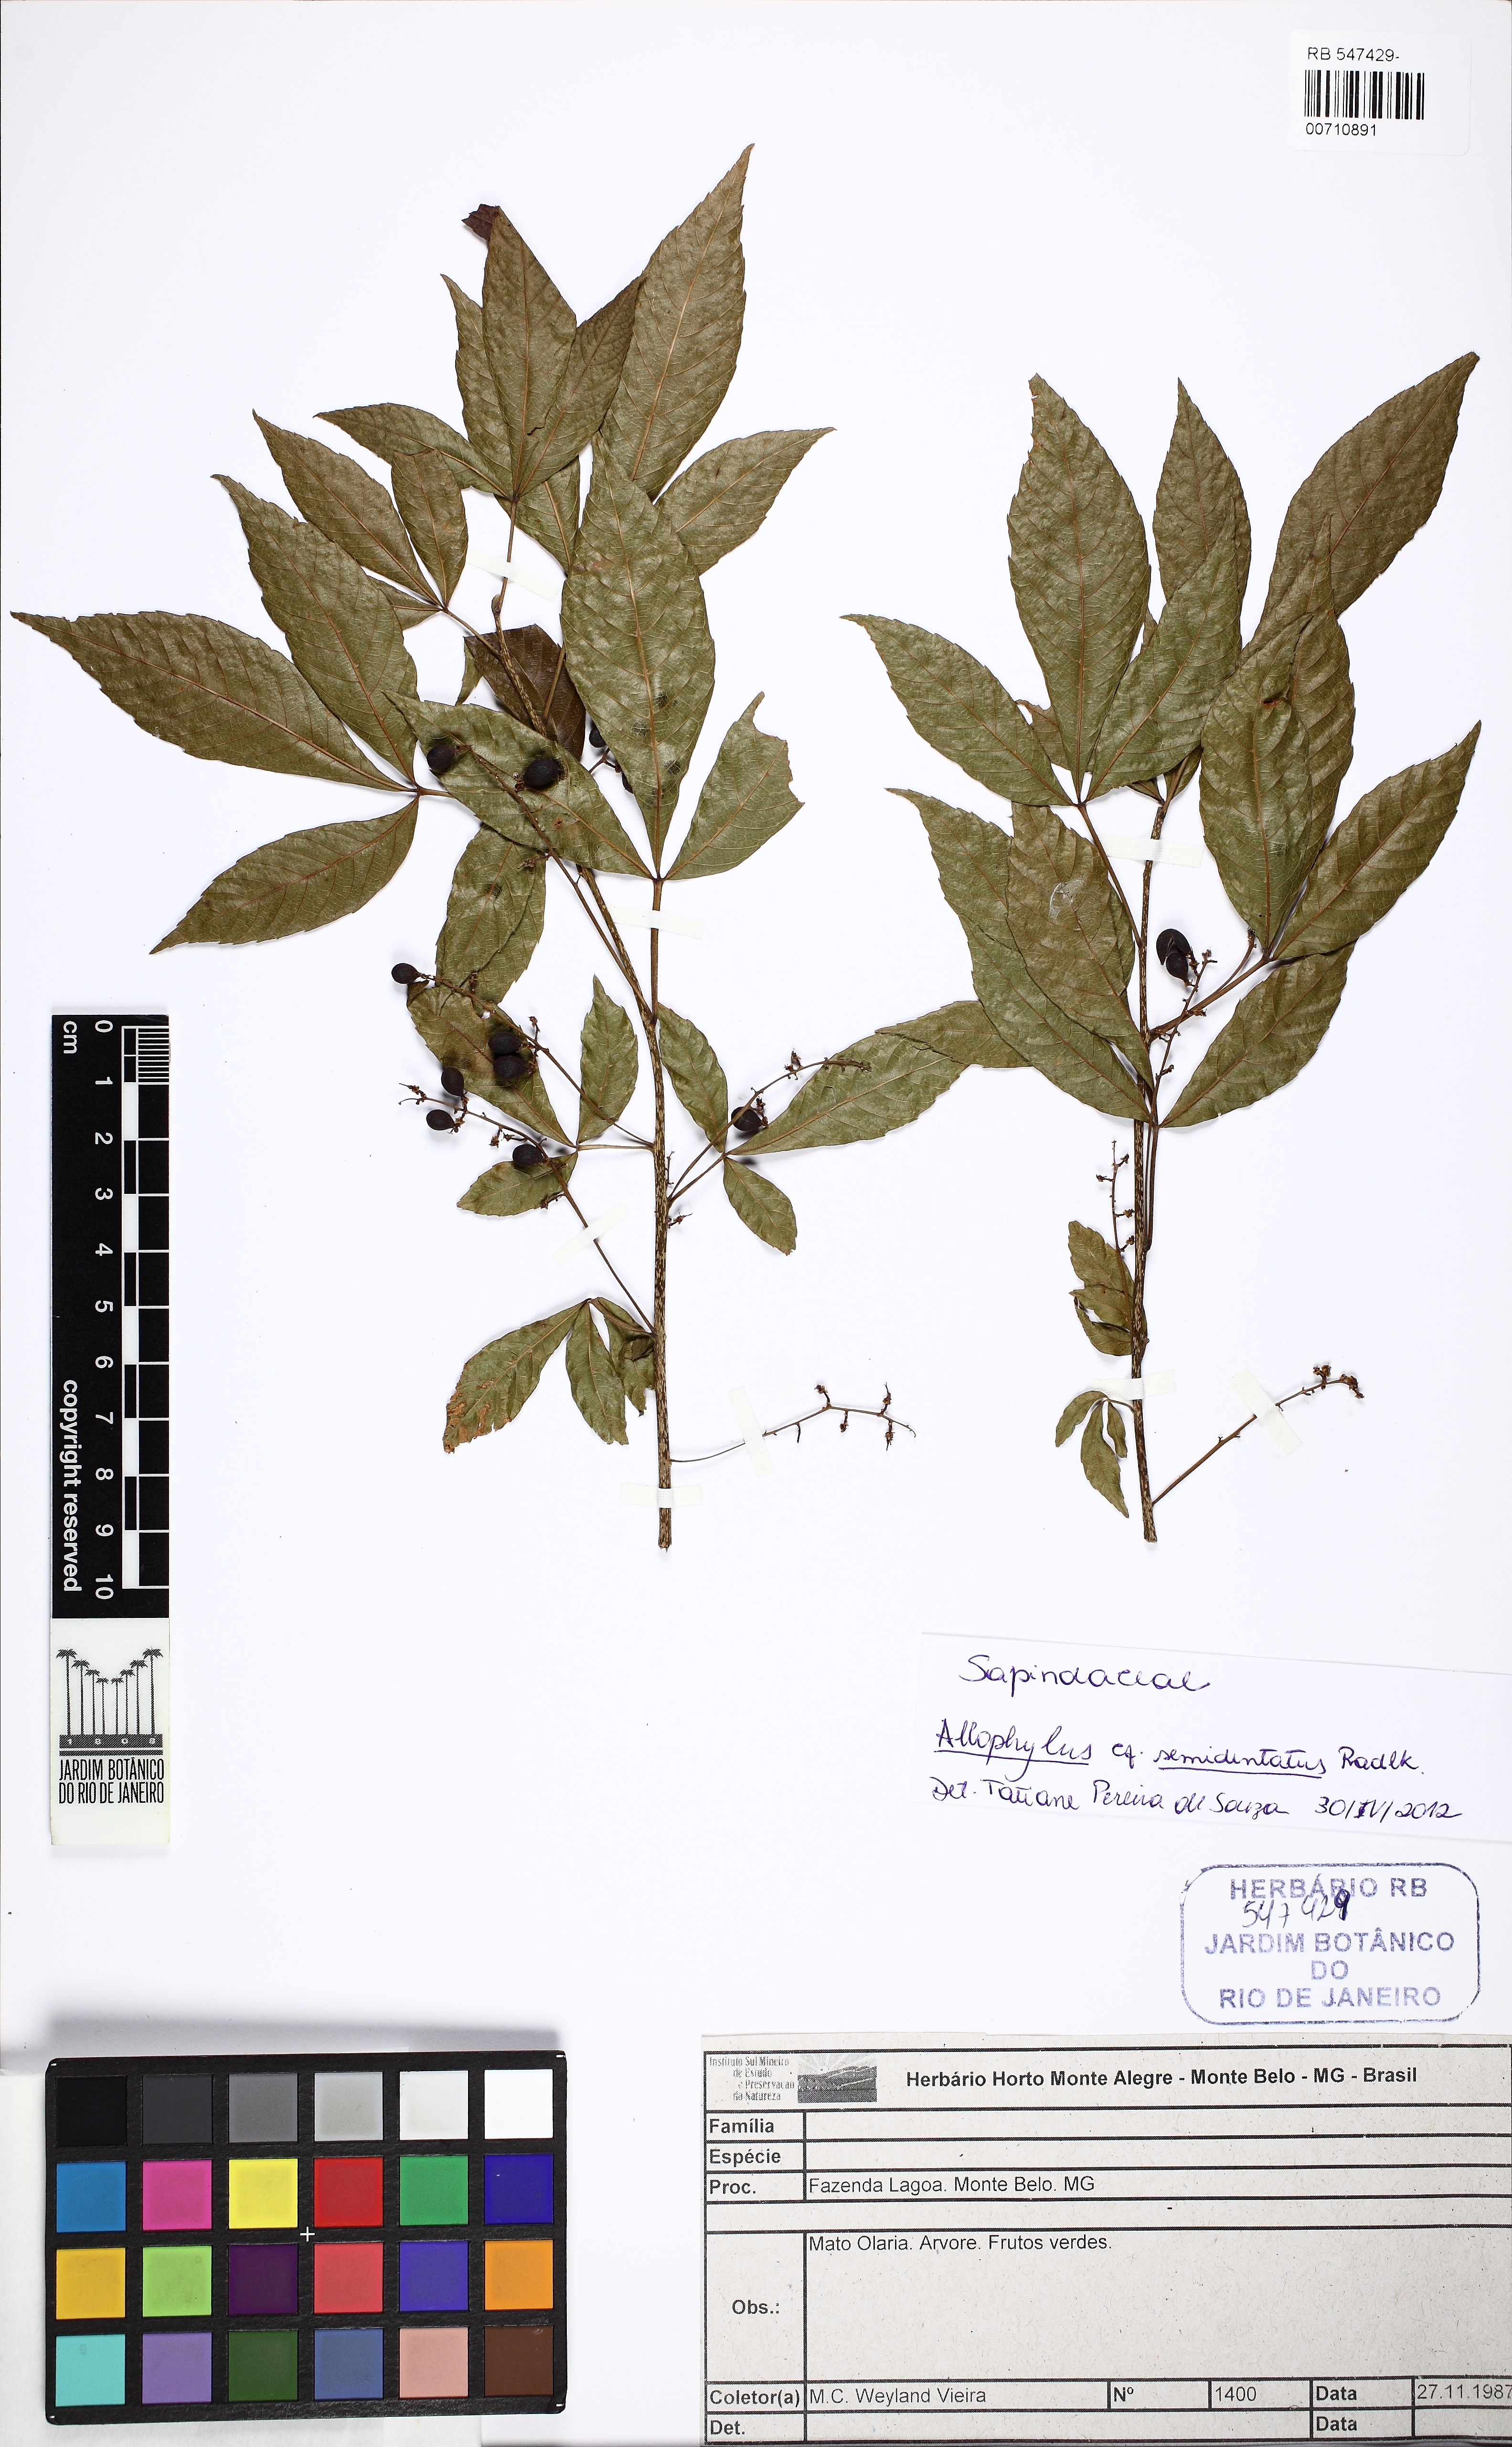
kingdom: Plantae
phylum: Tracheophyta
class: Magnoliopsida
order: Piperales
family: Piperaceae
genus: Piper
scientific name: Piper arboreum
